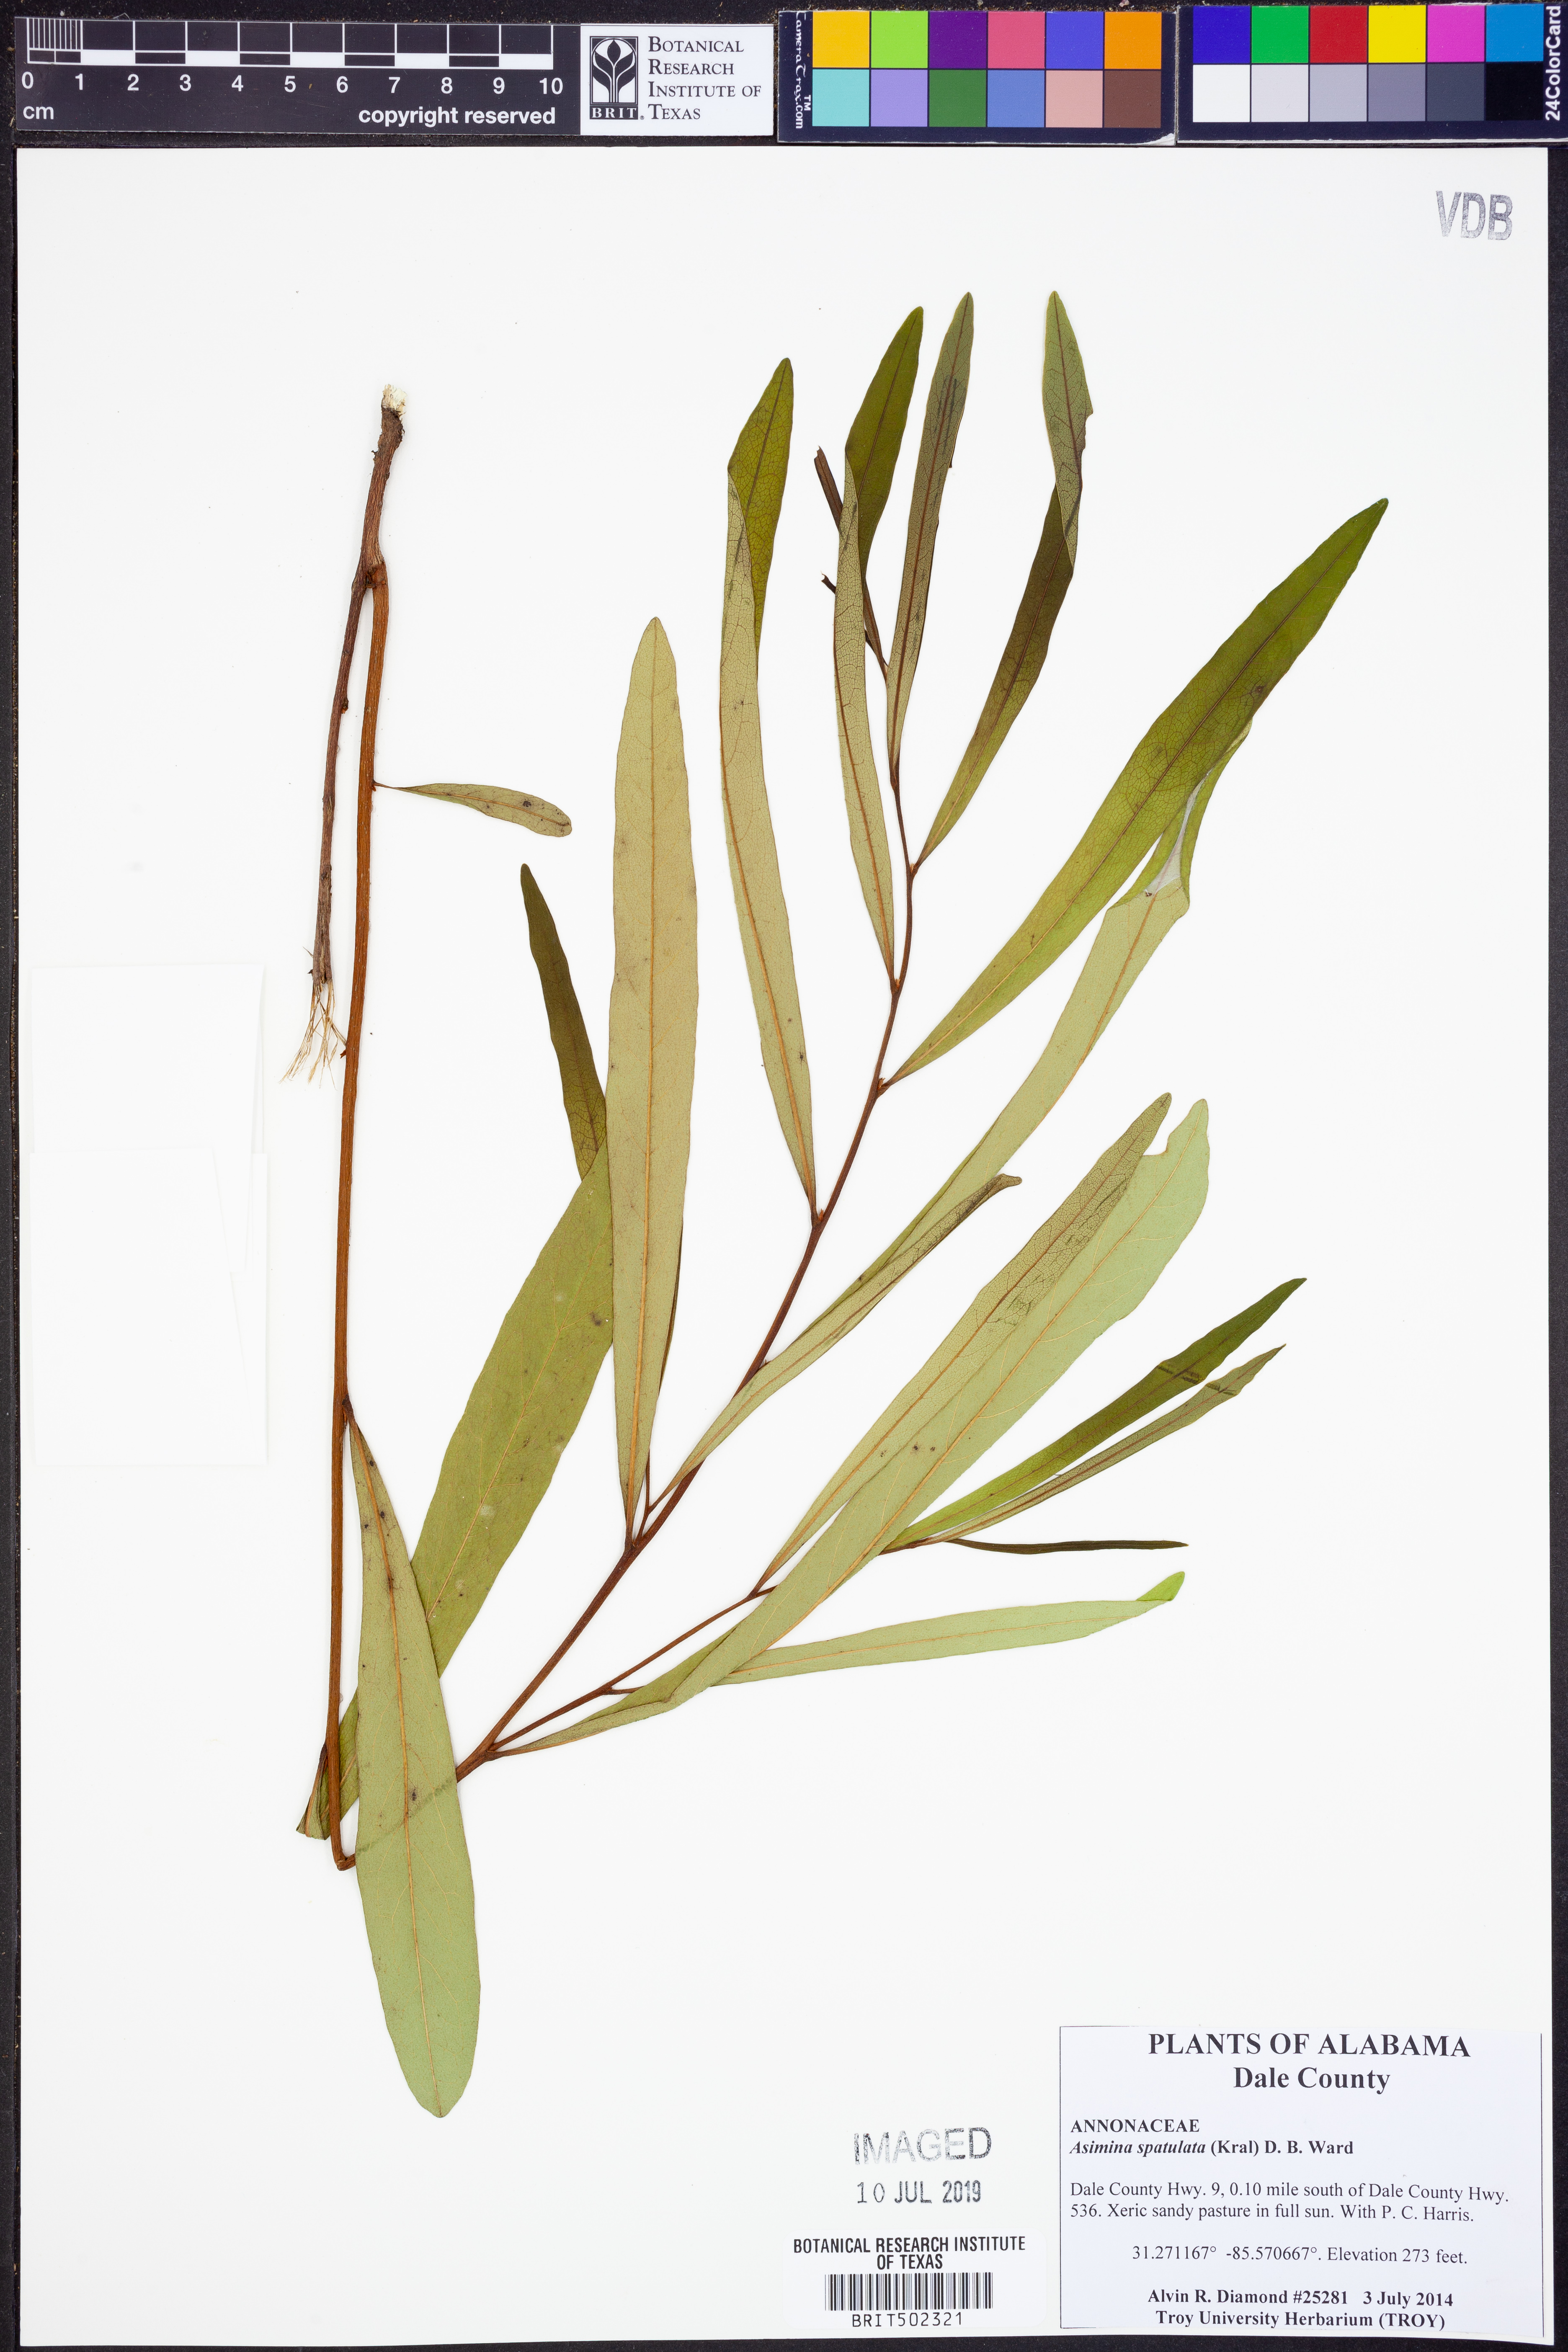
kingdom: Plantae
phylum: Tracheophyta
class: Magnoliopsida
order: Magnoliales
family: Annonaceae
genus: Asimina
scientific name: Asimina spatulata
